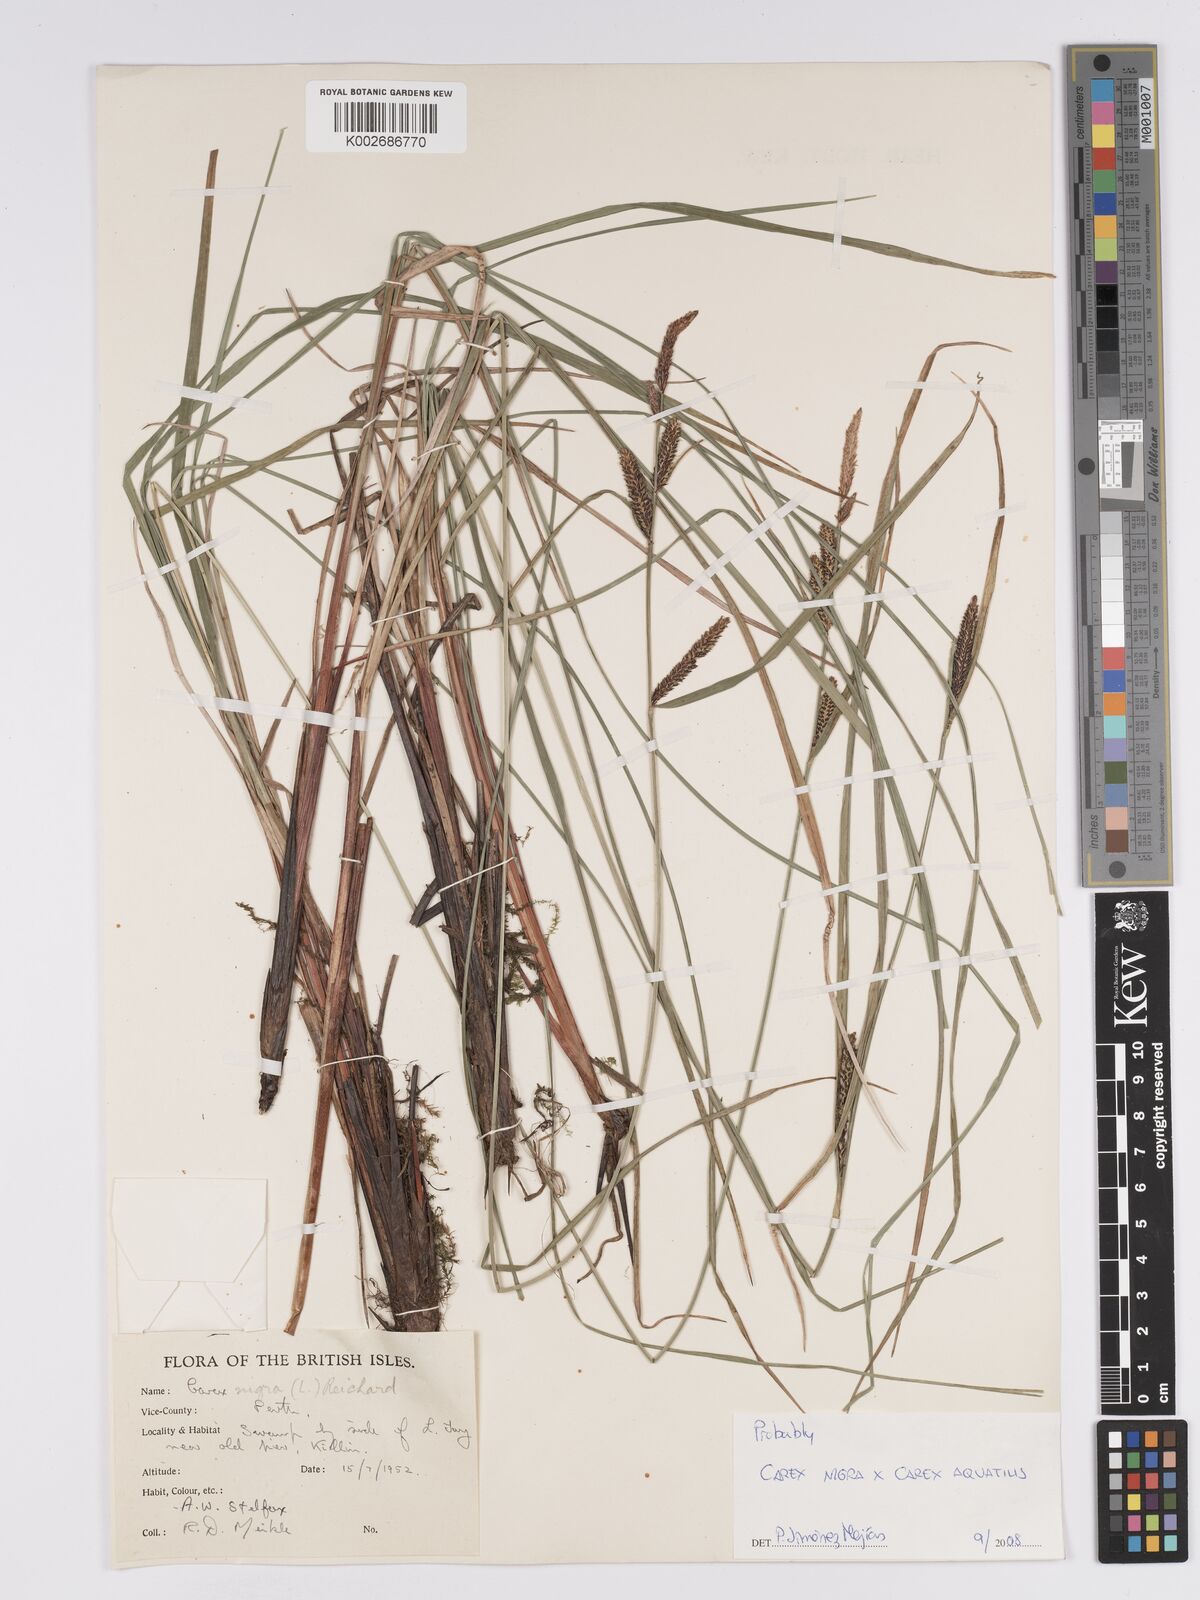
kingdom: Plantae
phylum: Tracheophyta
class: Liliopsida
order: Poales
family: Cyperaceae
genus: Carex
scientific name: Carex microcarpa
